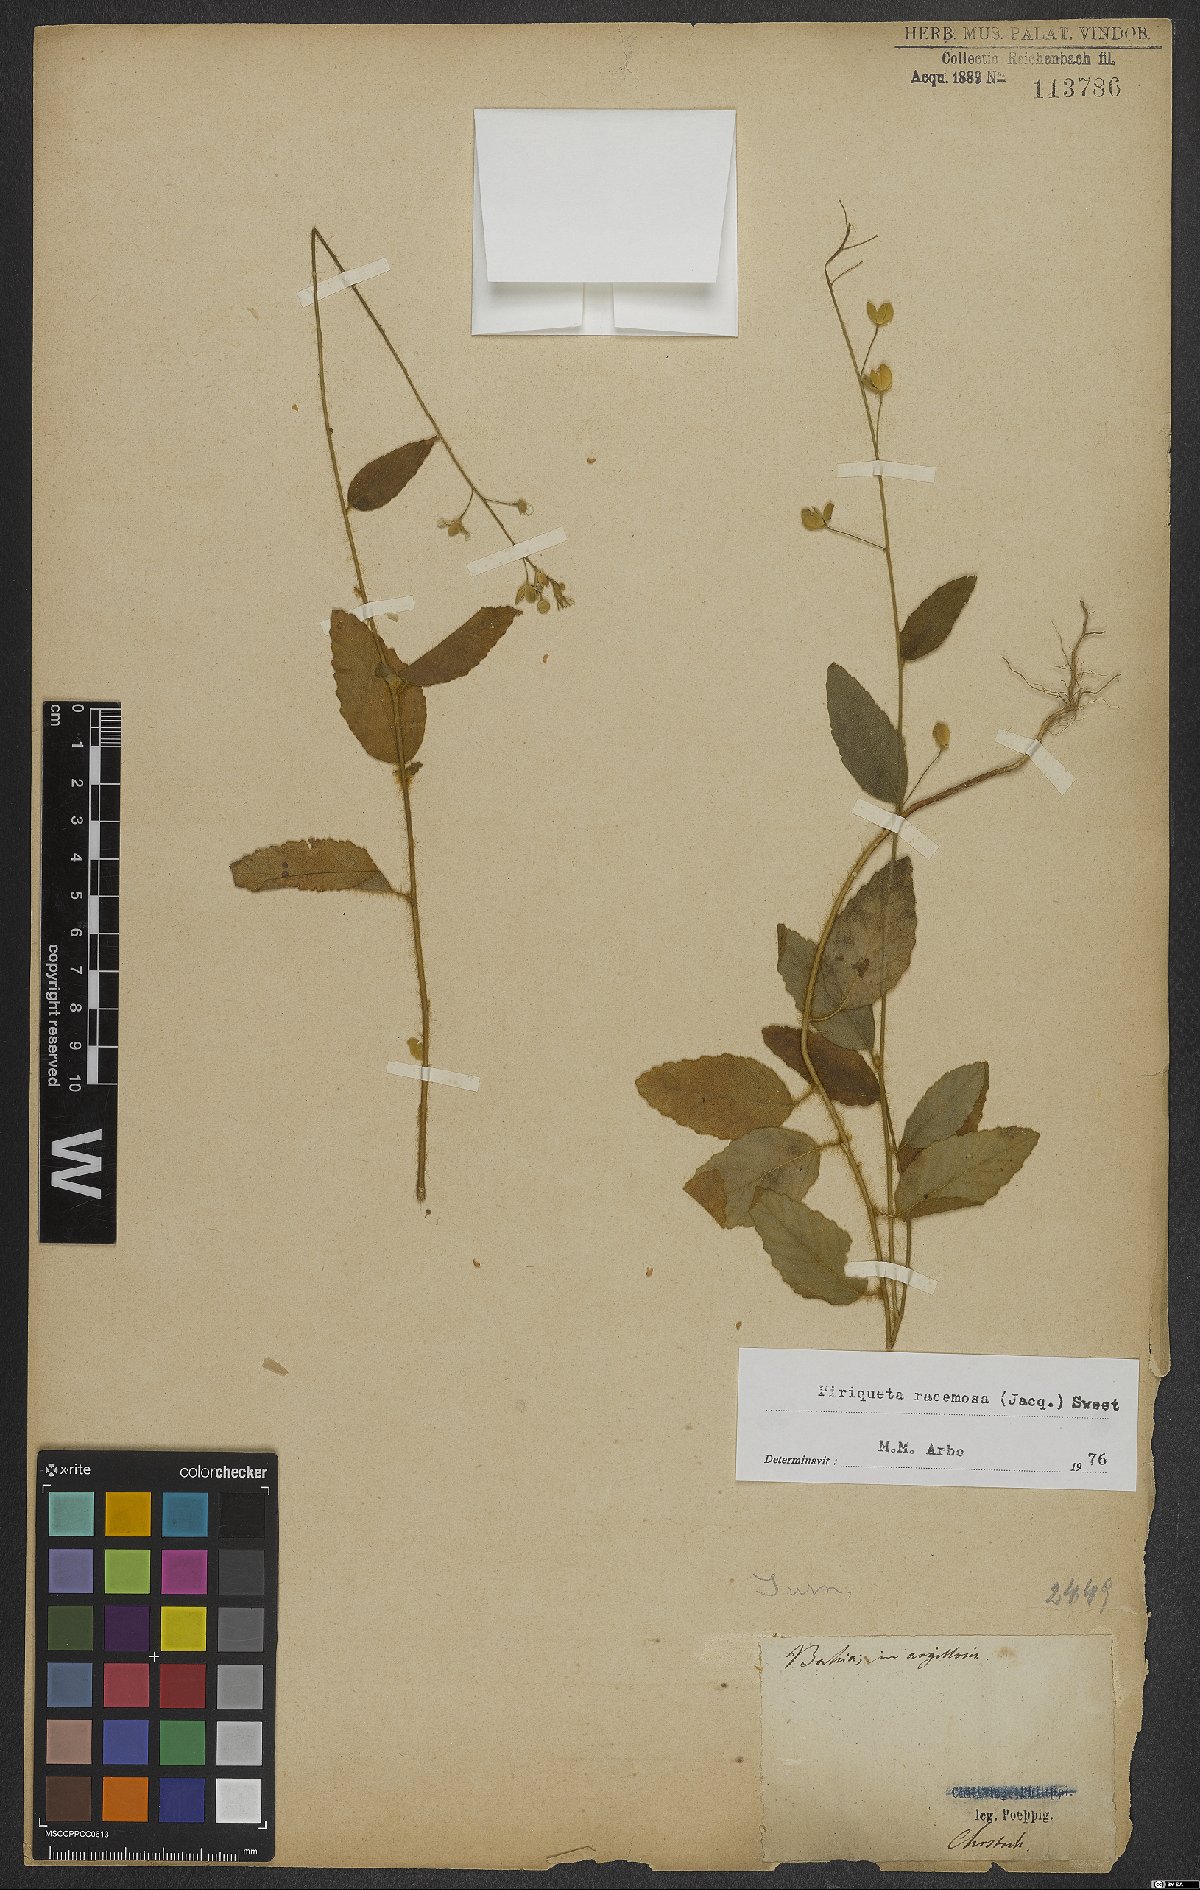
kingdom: Plantae
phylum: Tracheophyta
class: Magnoliopsida
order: Malpighiales
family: Turneraceae
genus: Piriqueta
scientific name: Piriqueta racemosa
